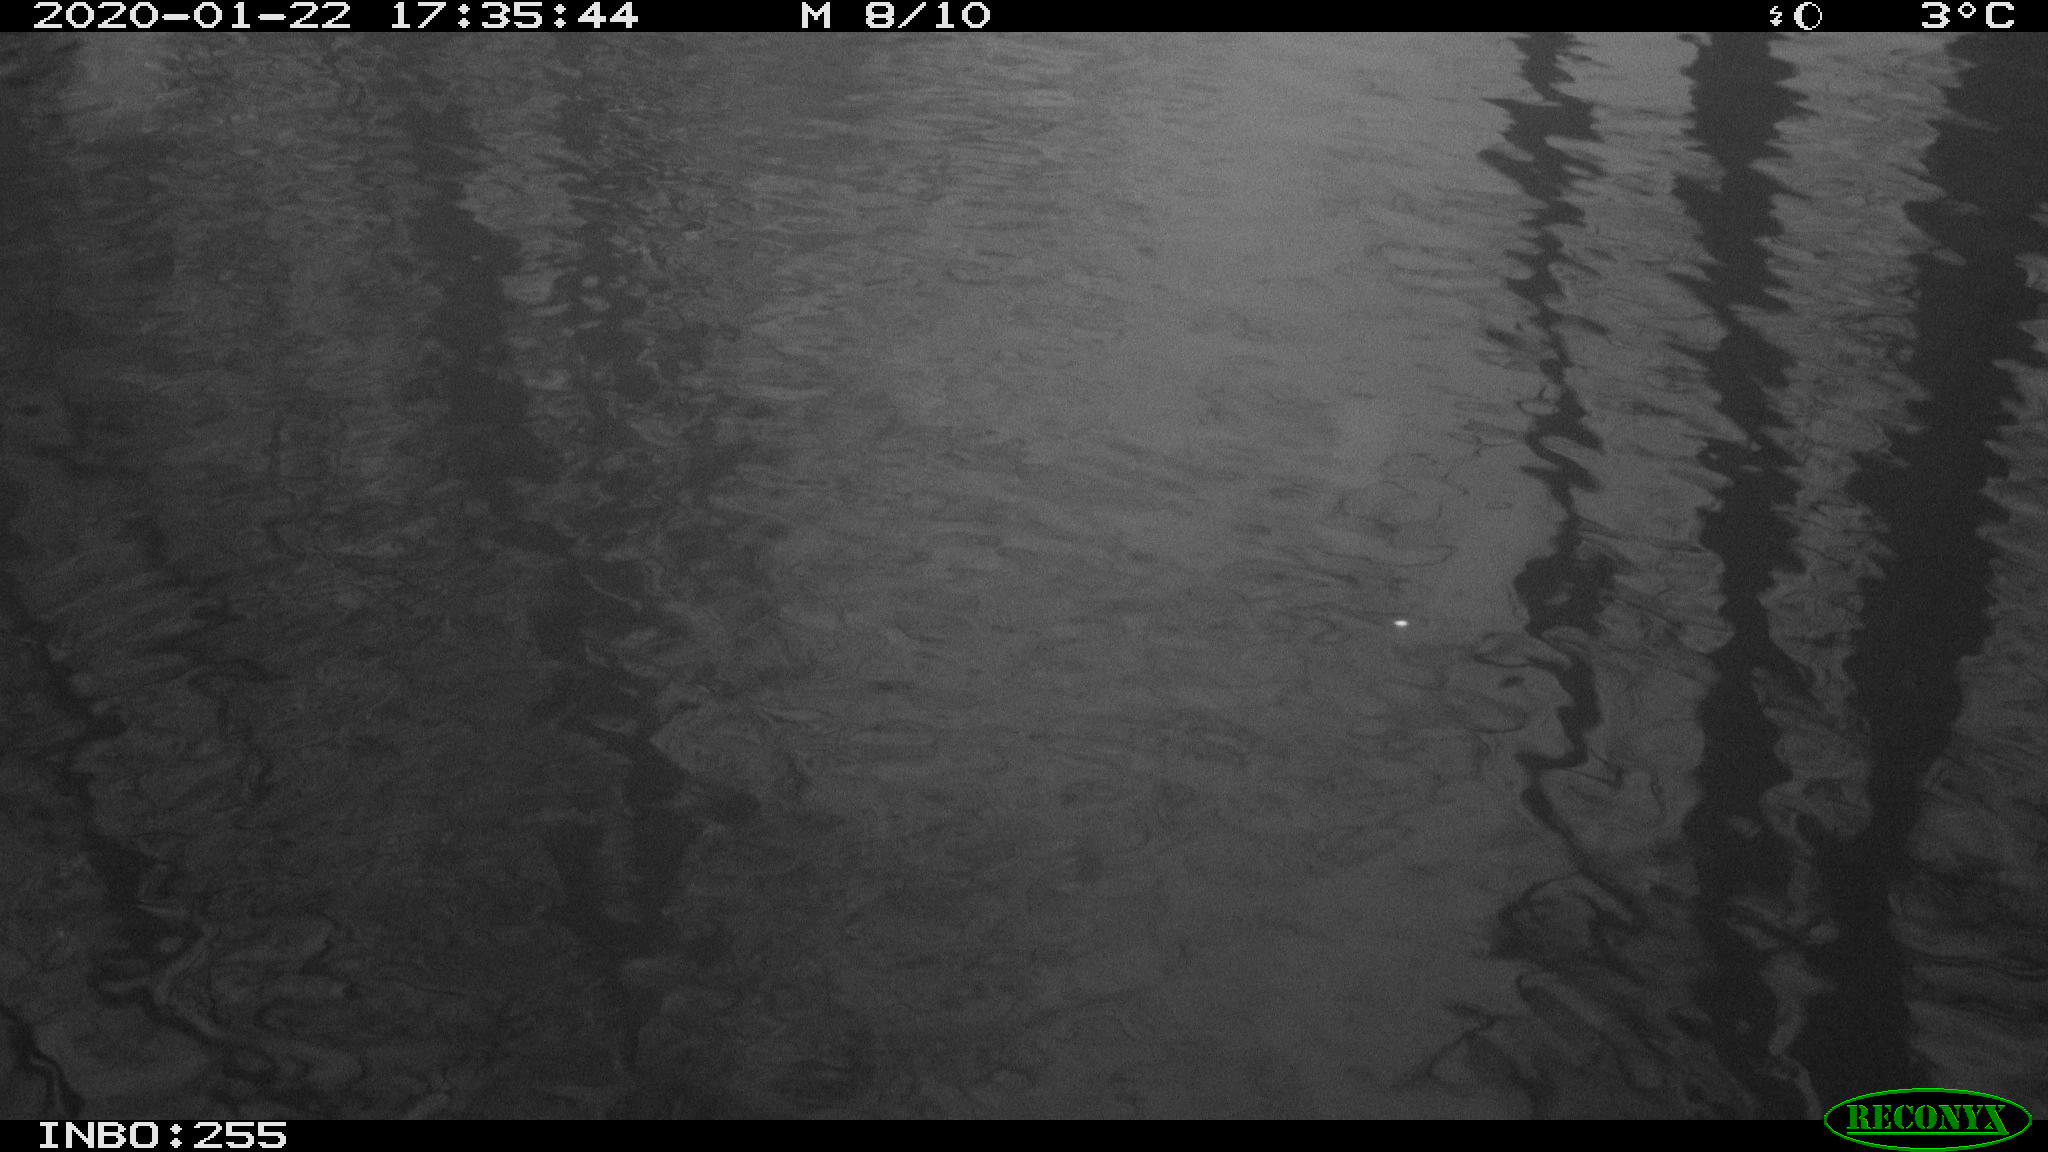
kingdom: Animalia
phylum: Chordata
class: Aves
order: Anseriformes
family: Anatidae
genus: Anas
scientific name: Anas platyrhynchos
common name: Mallard
